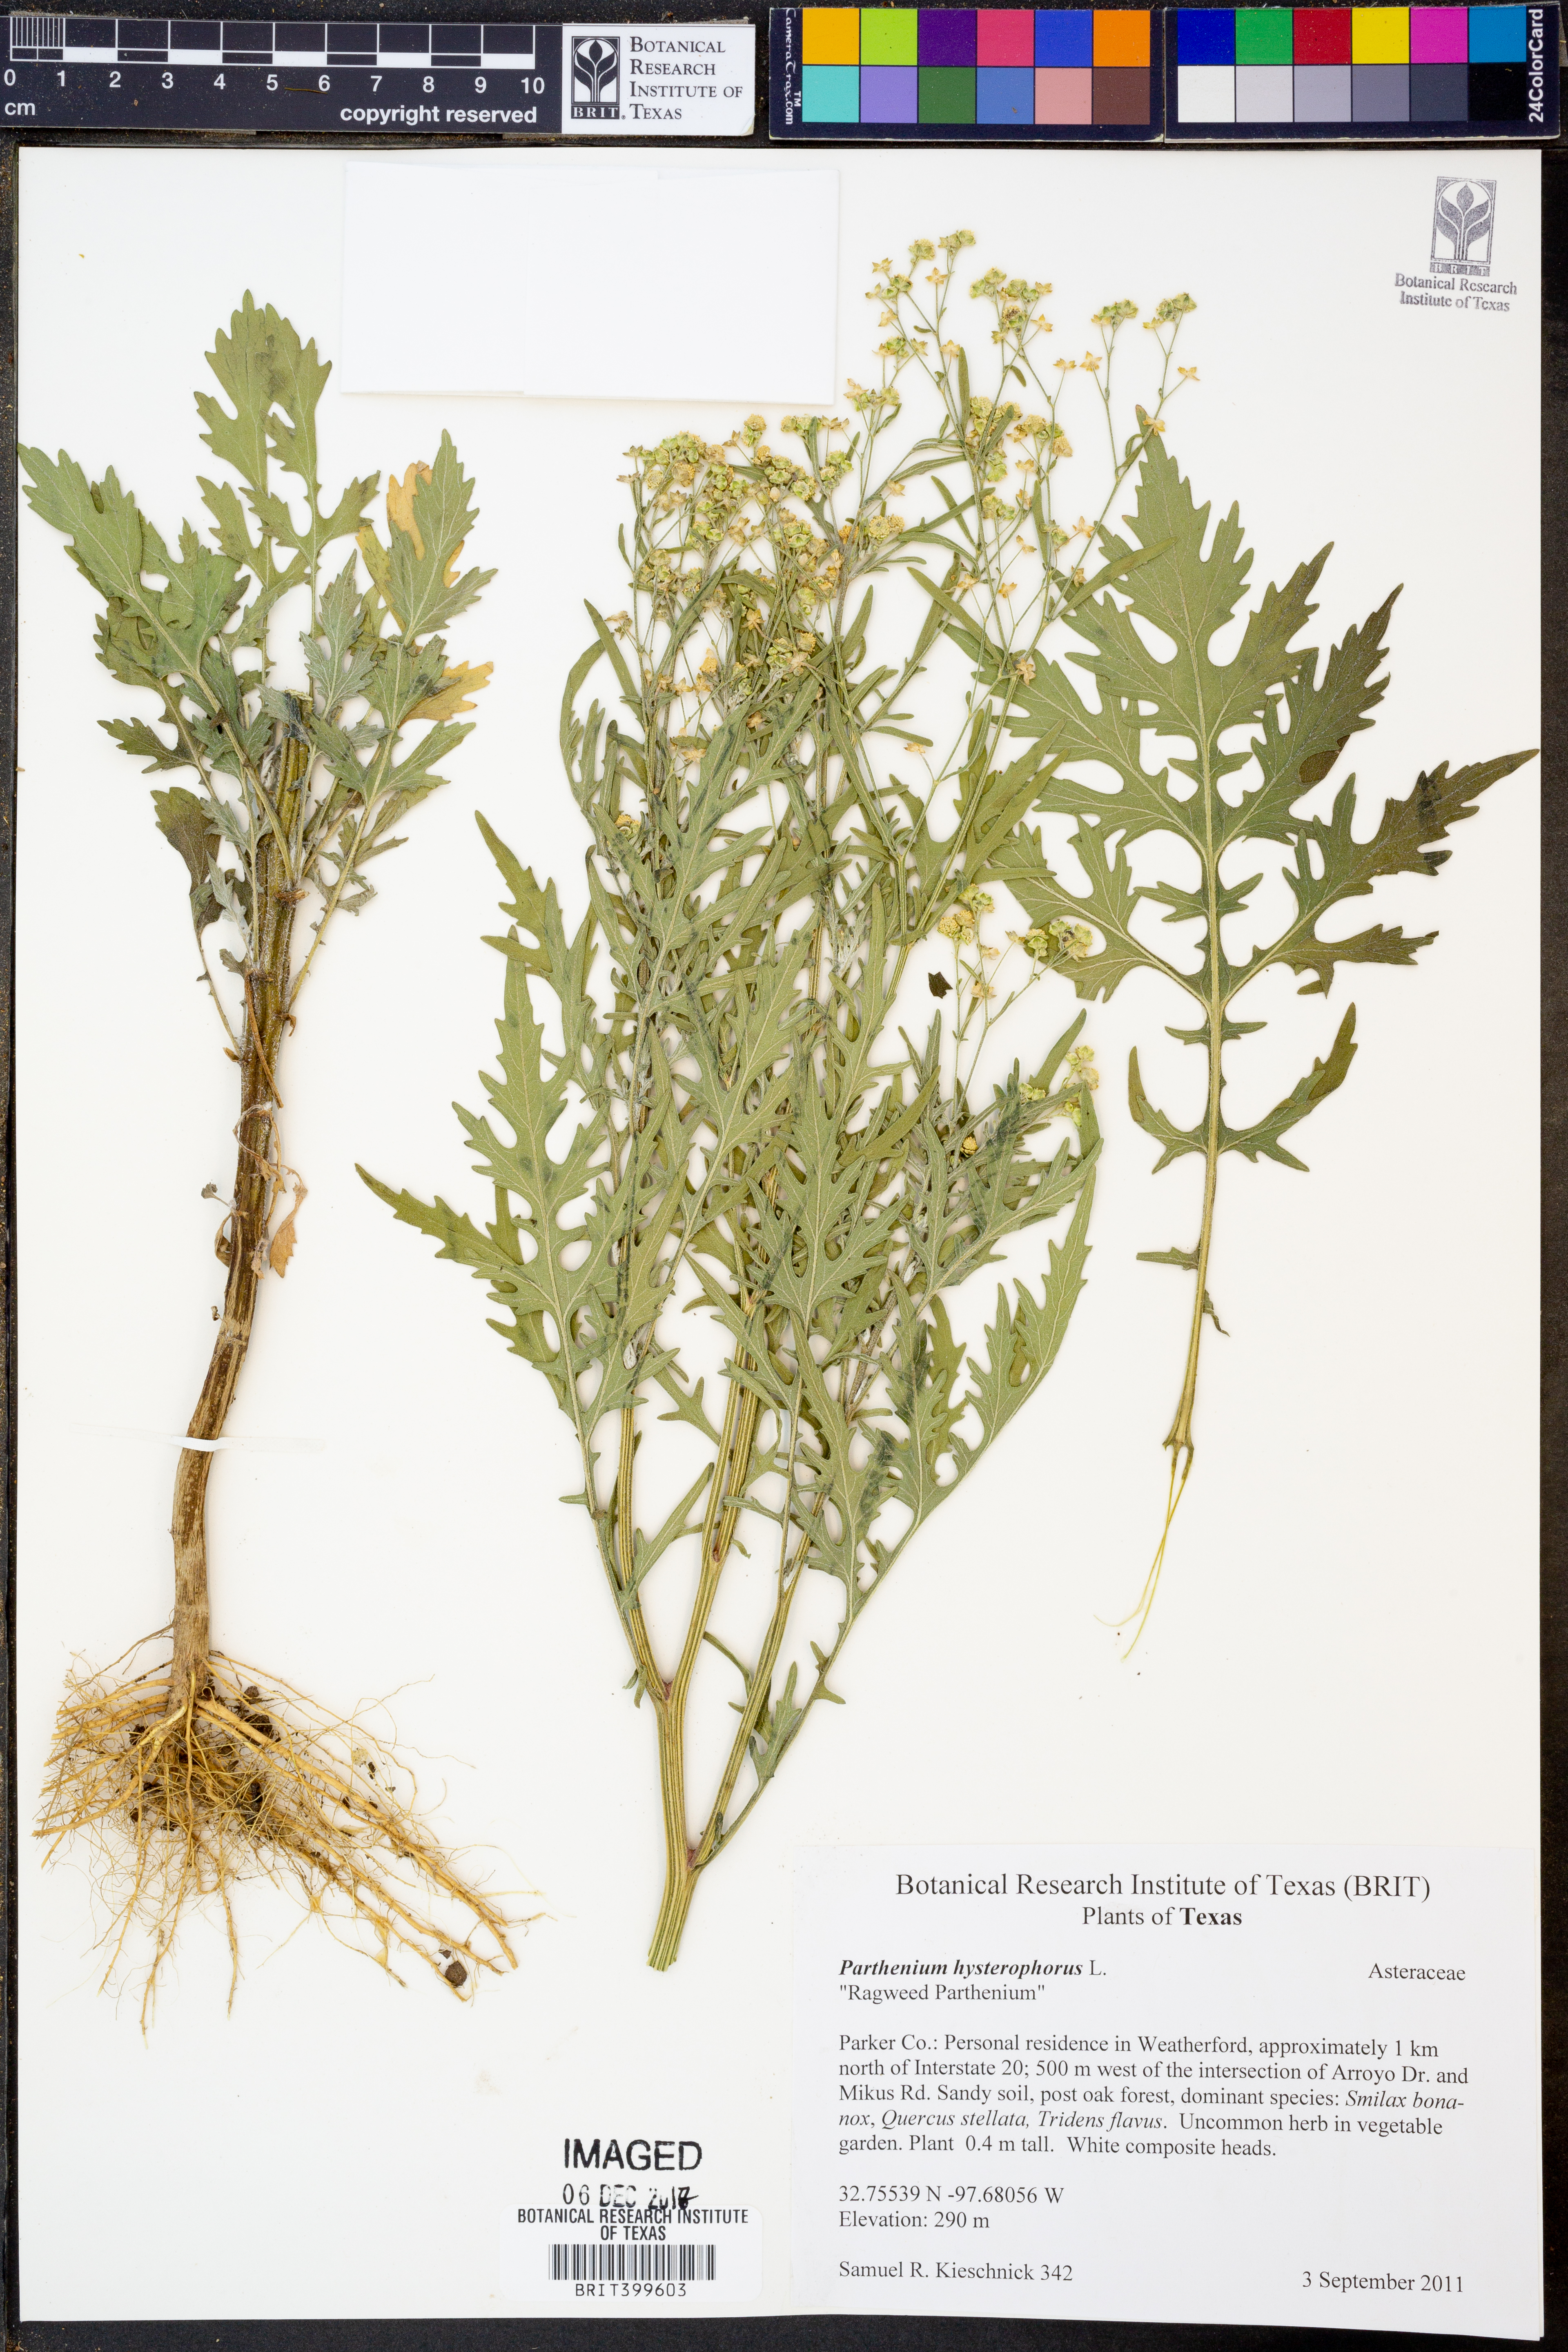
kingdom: Plantae
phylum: Tracheophyta
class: Magnoliopsida
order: Asterales
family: Asteraceae
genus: Parthenium
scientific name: Parthenium hysterophorus
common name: Santa maria feverfew
